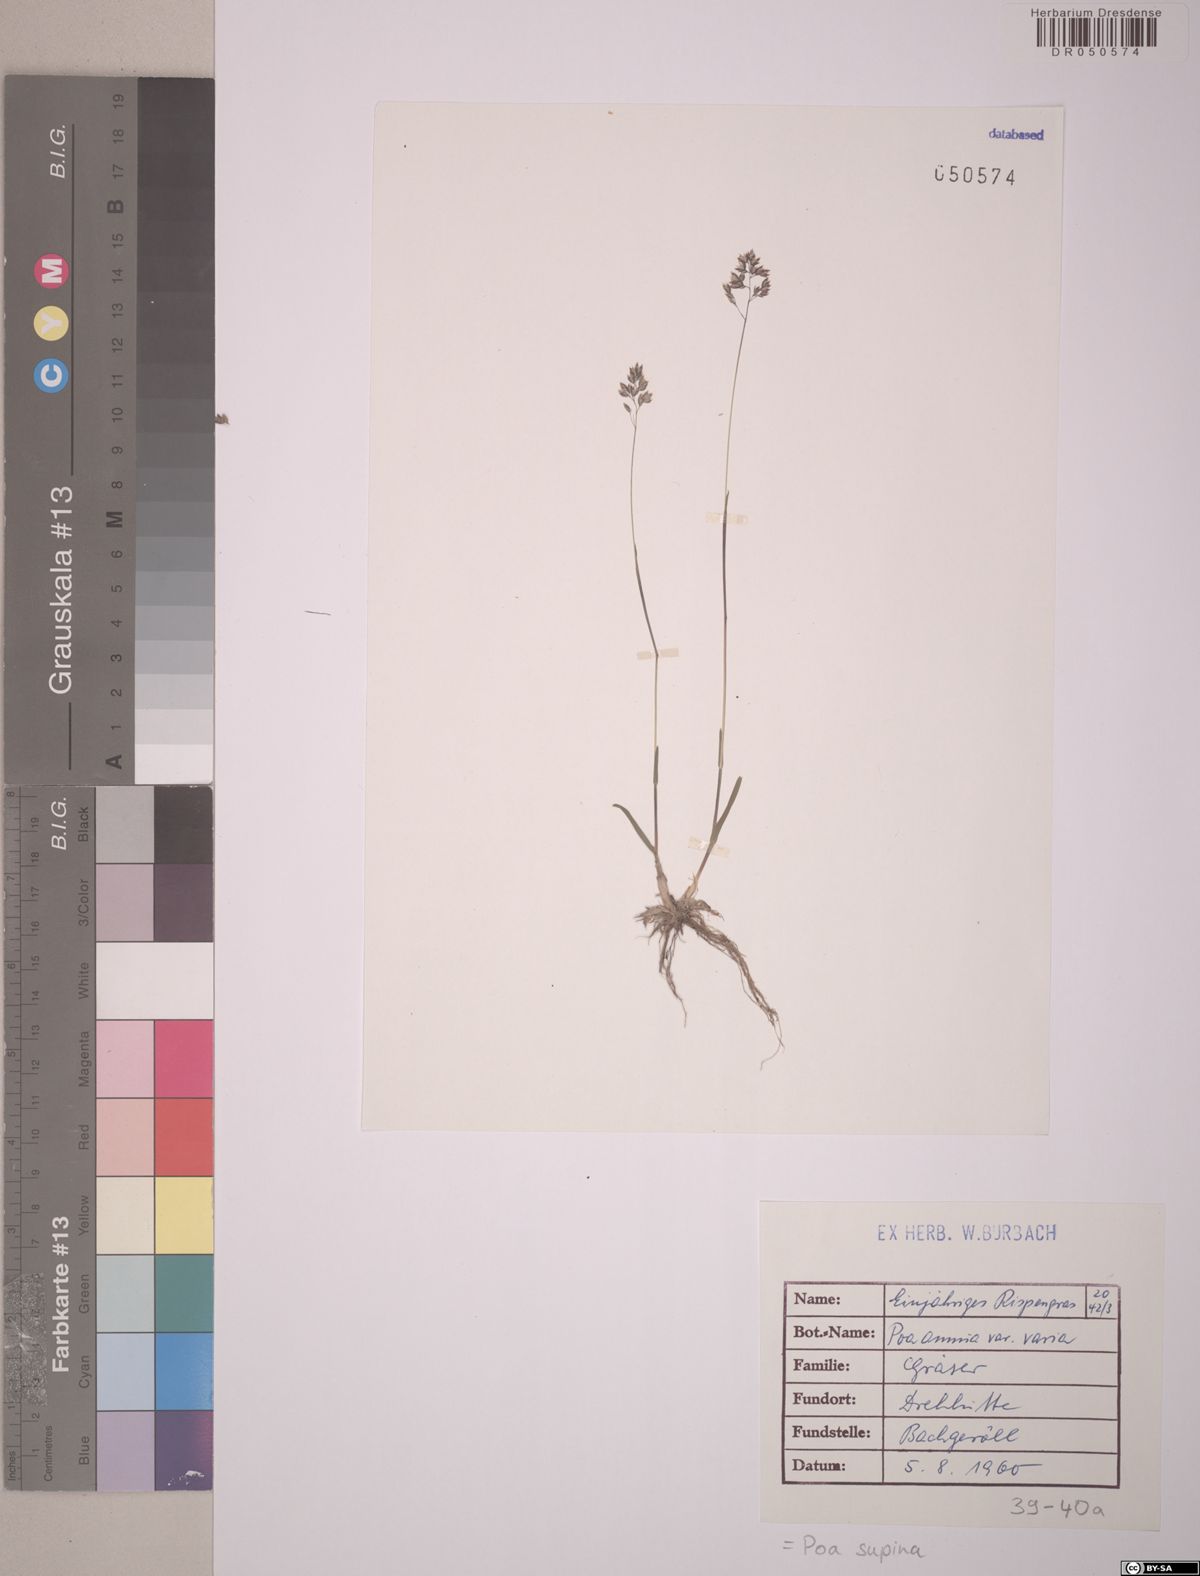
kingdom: Plantae
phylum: Tracheophyta
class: Liliopsida
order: Poales
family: Poaceae
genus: Poa
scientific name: Poa supina
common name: Supina bluegrass
